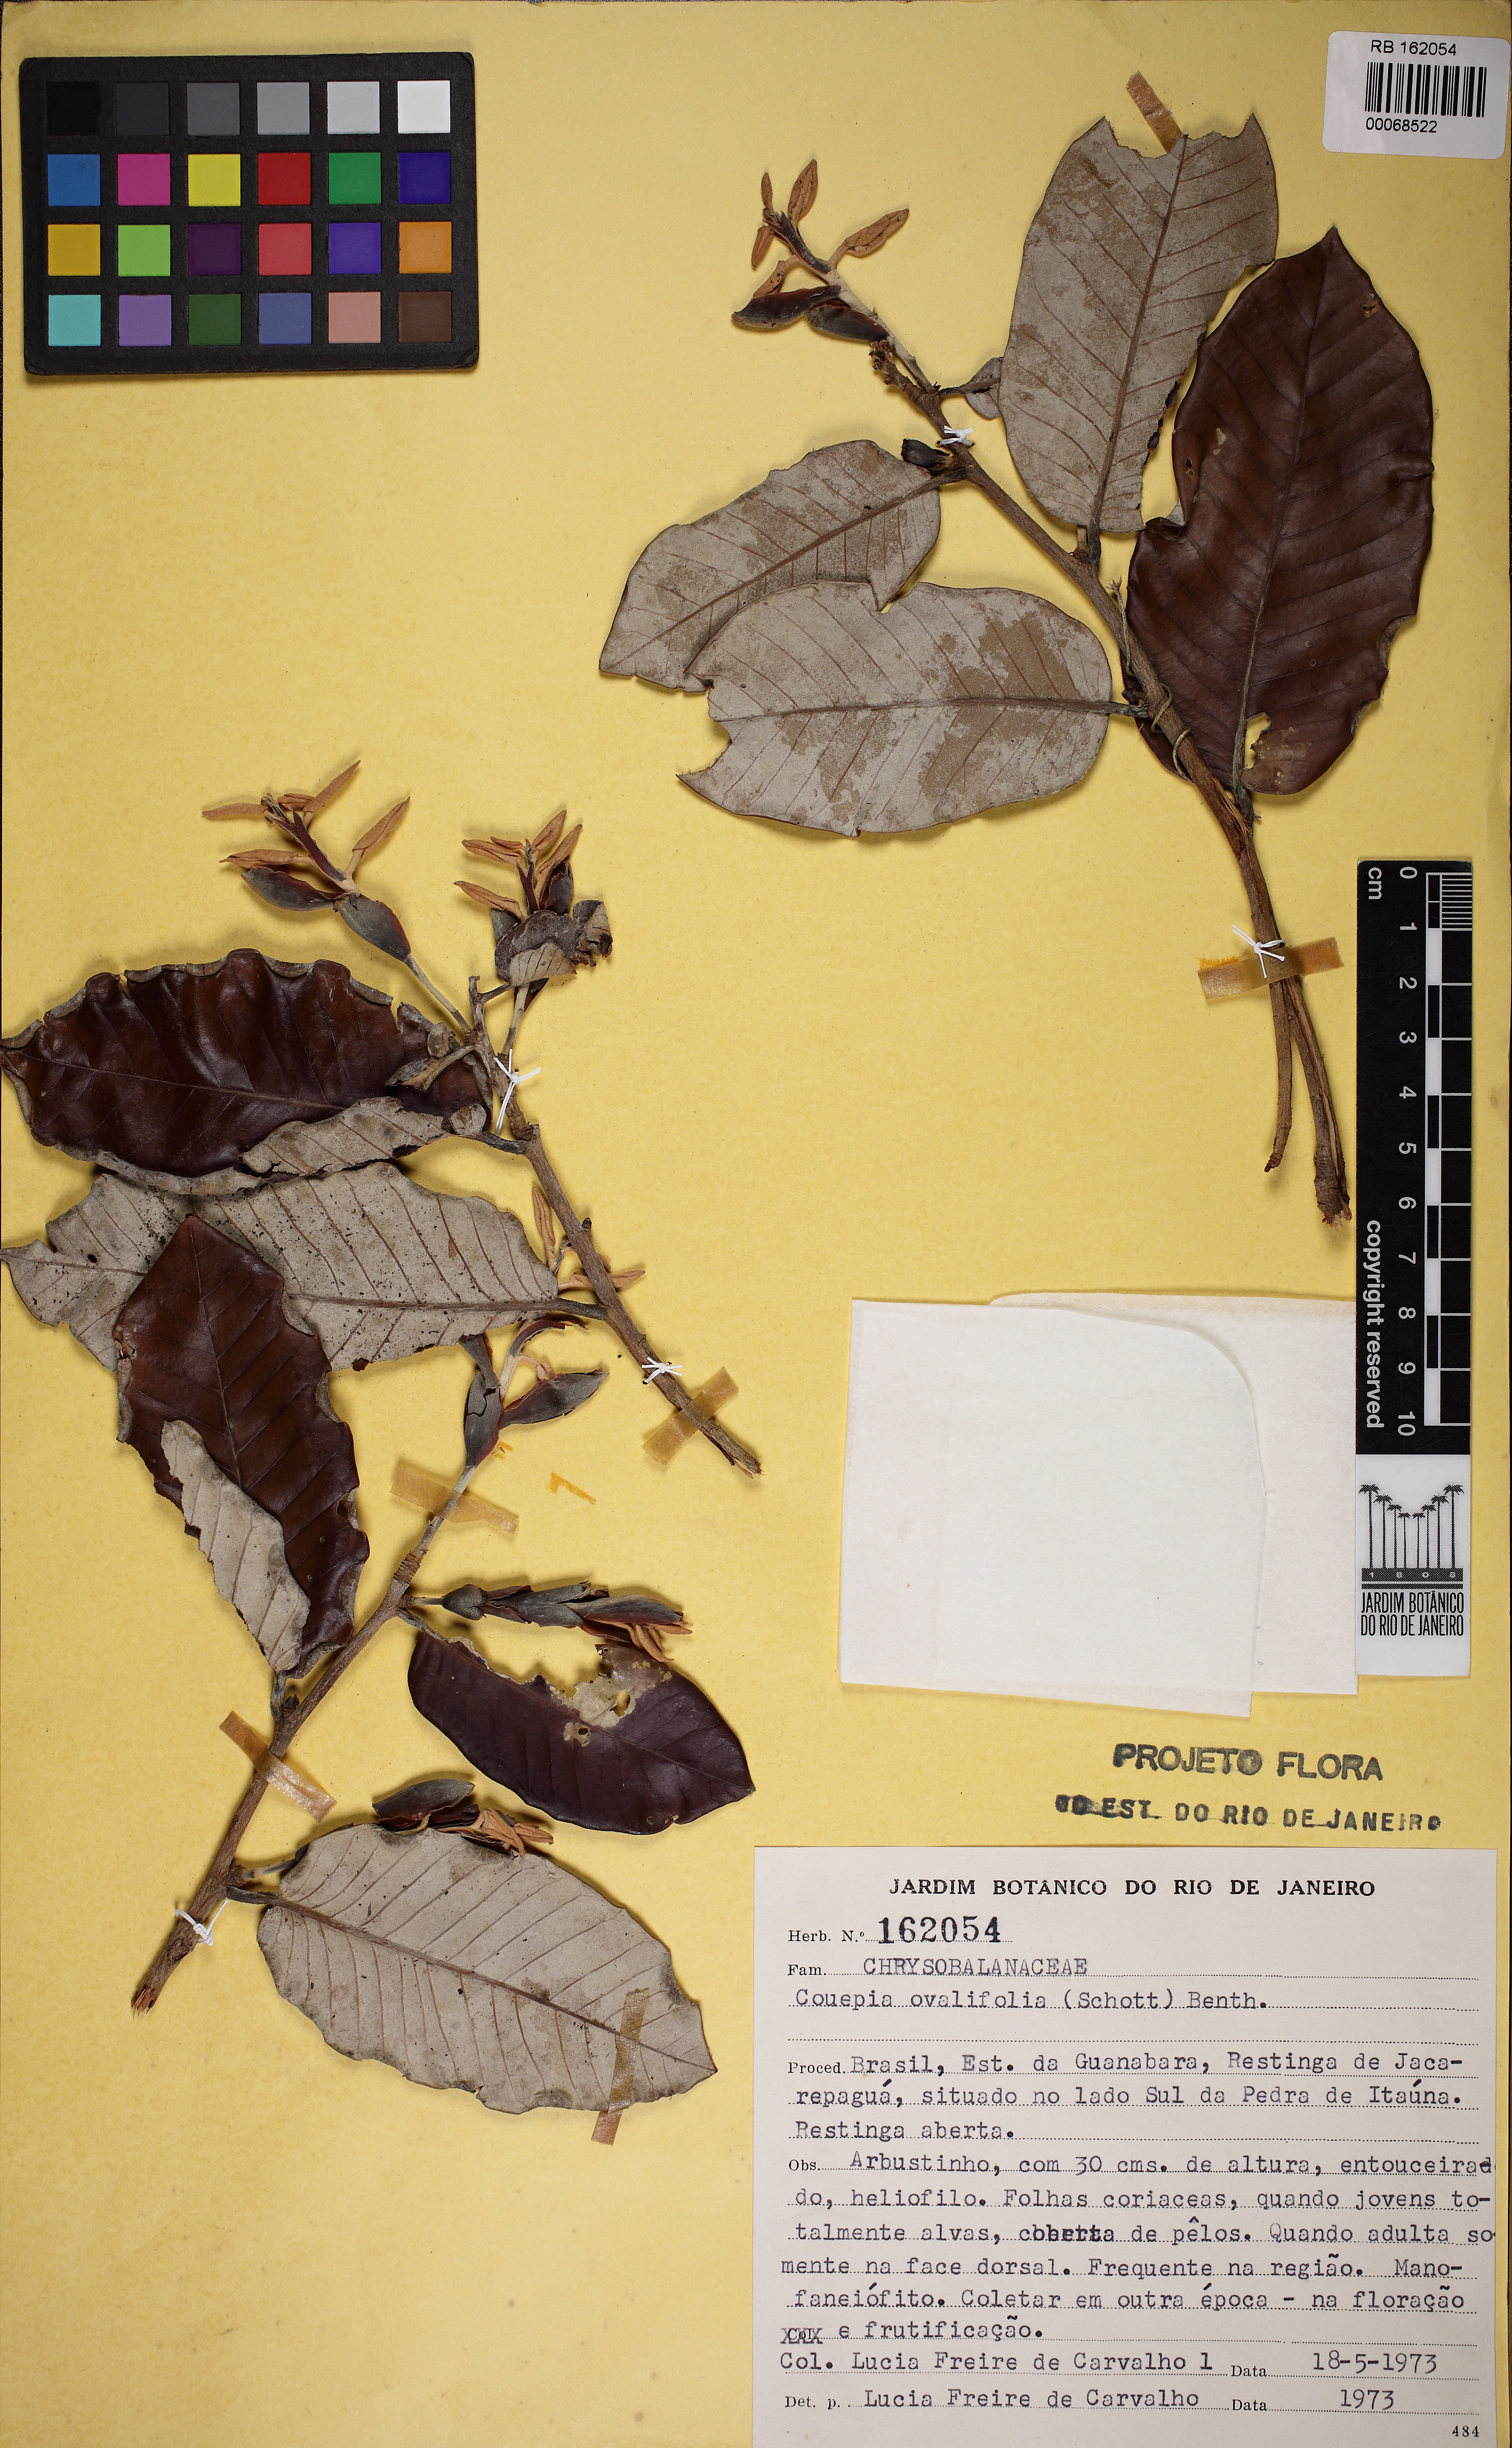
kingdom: Plantae
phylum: Tracheophyta
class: Magnoliopsida
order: Malpighiales
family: Chrysobalanaceae
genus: Couepia
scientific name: Couepia ovalifolia
